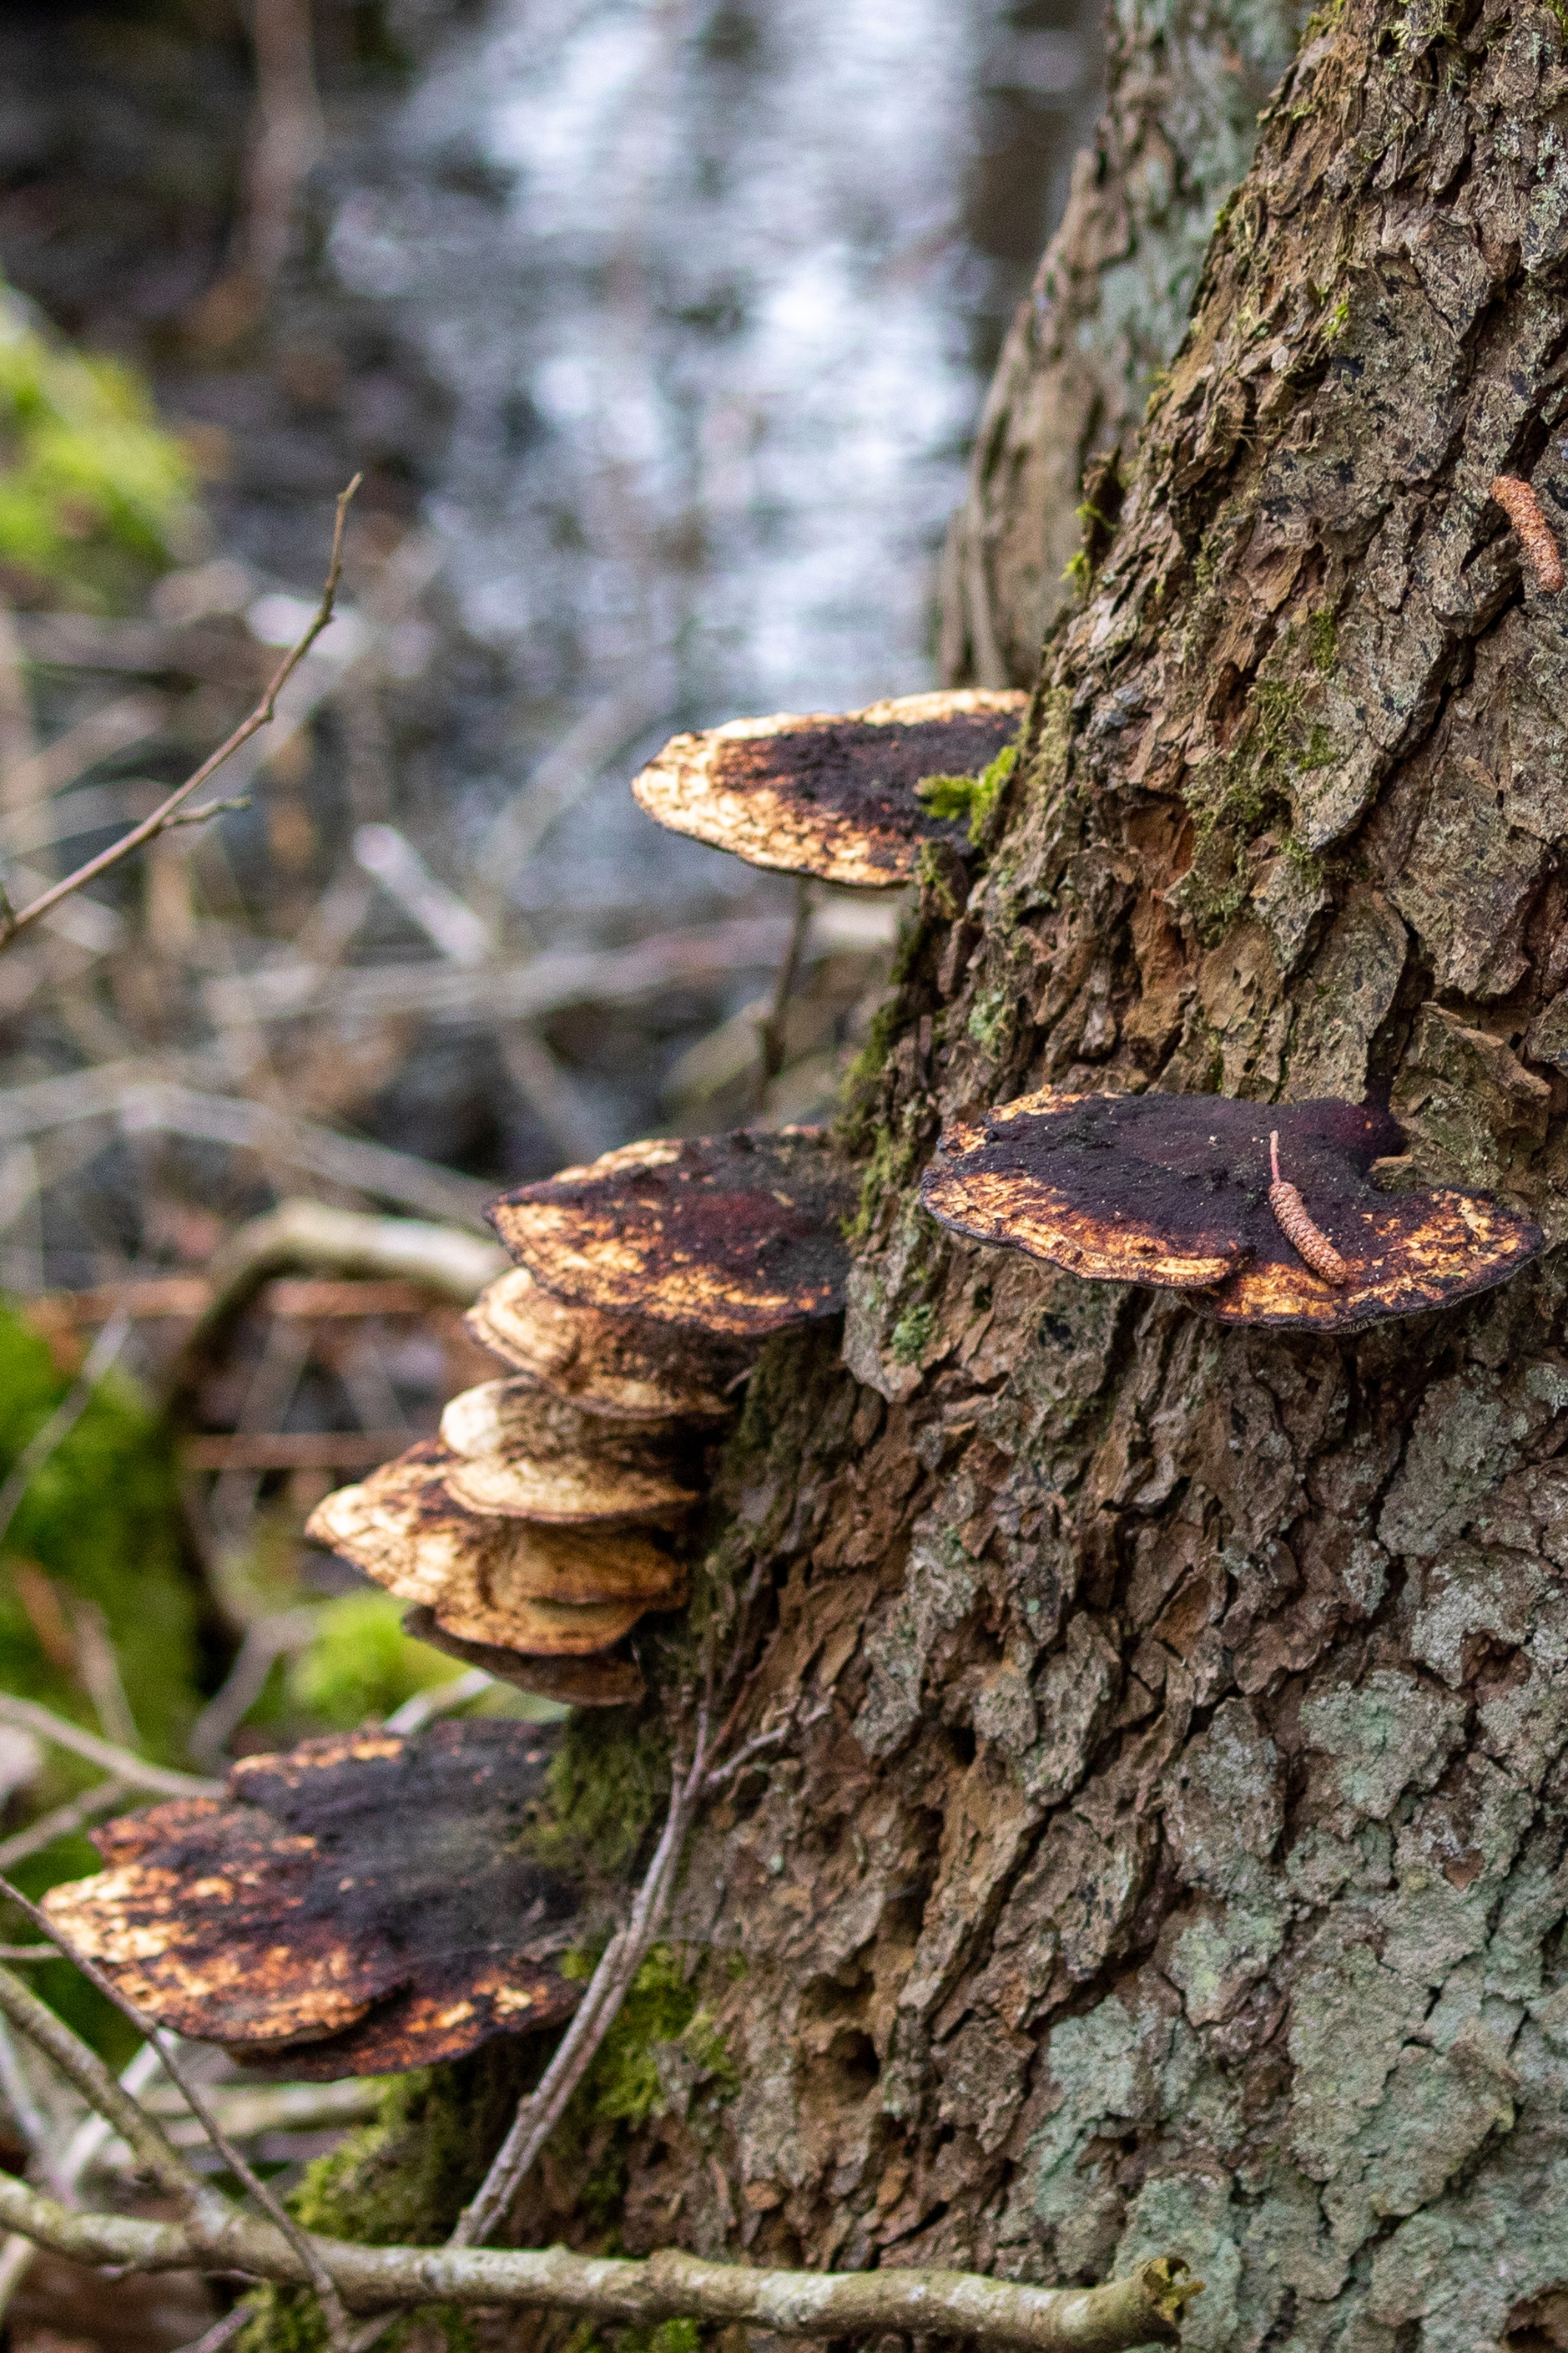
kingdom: Fungi
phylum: Basidiomycota
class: Agaricomycetes
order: Polyporales
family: Polyporaceae
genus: Daedaleopsis
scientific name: Daedaleopsis confragosa
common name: Rødmende læderporesvamp
